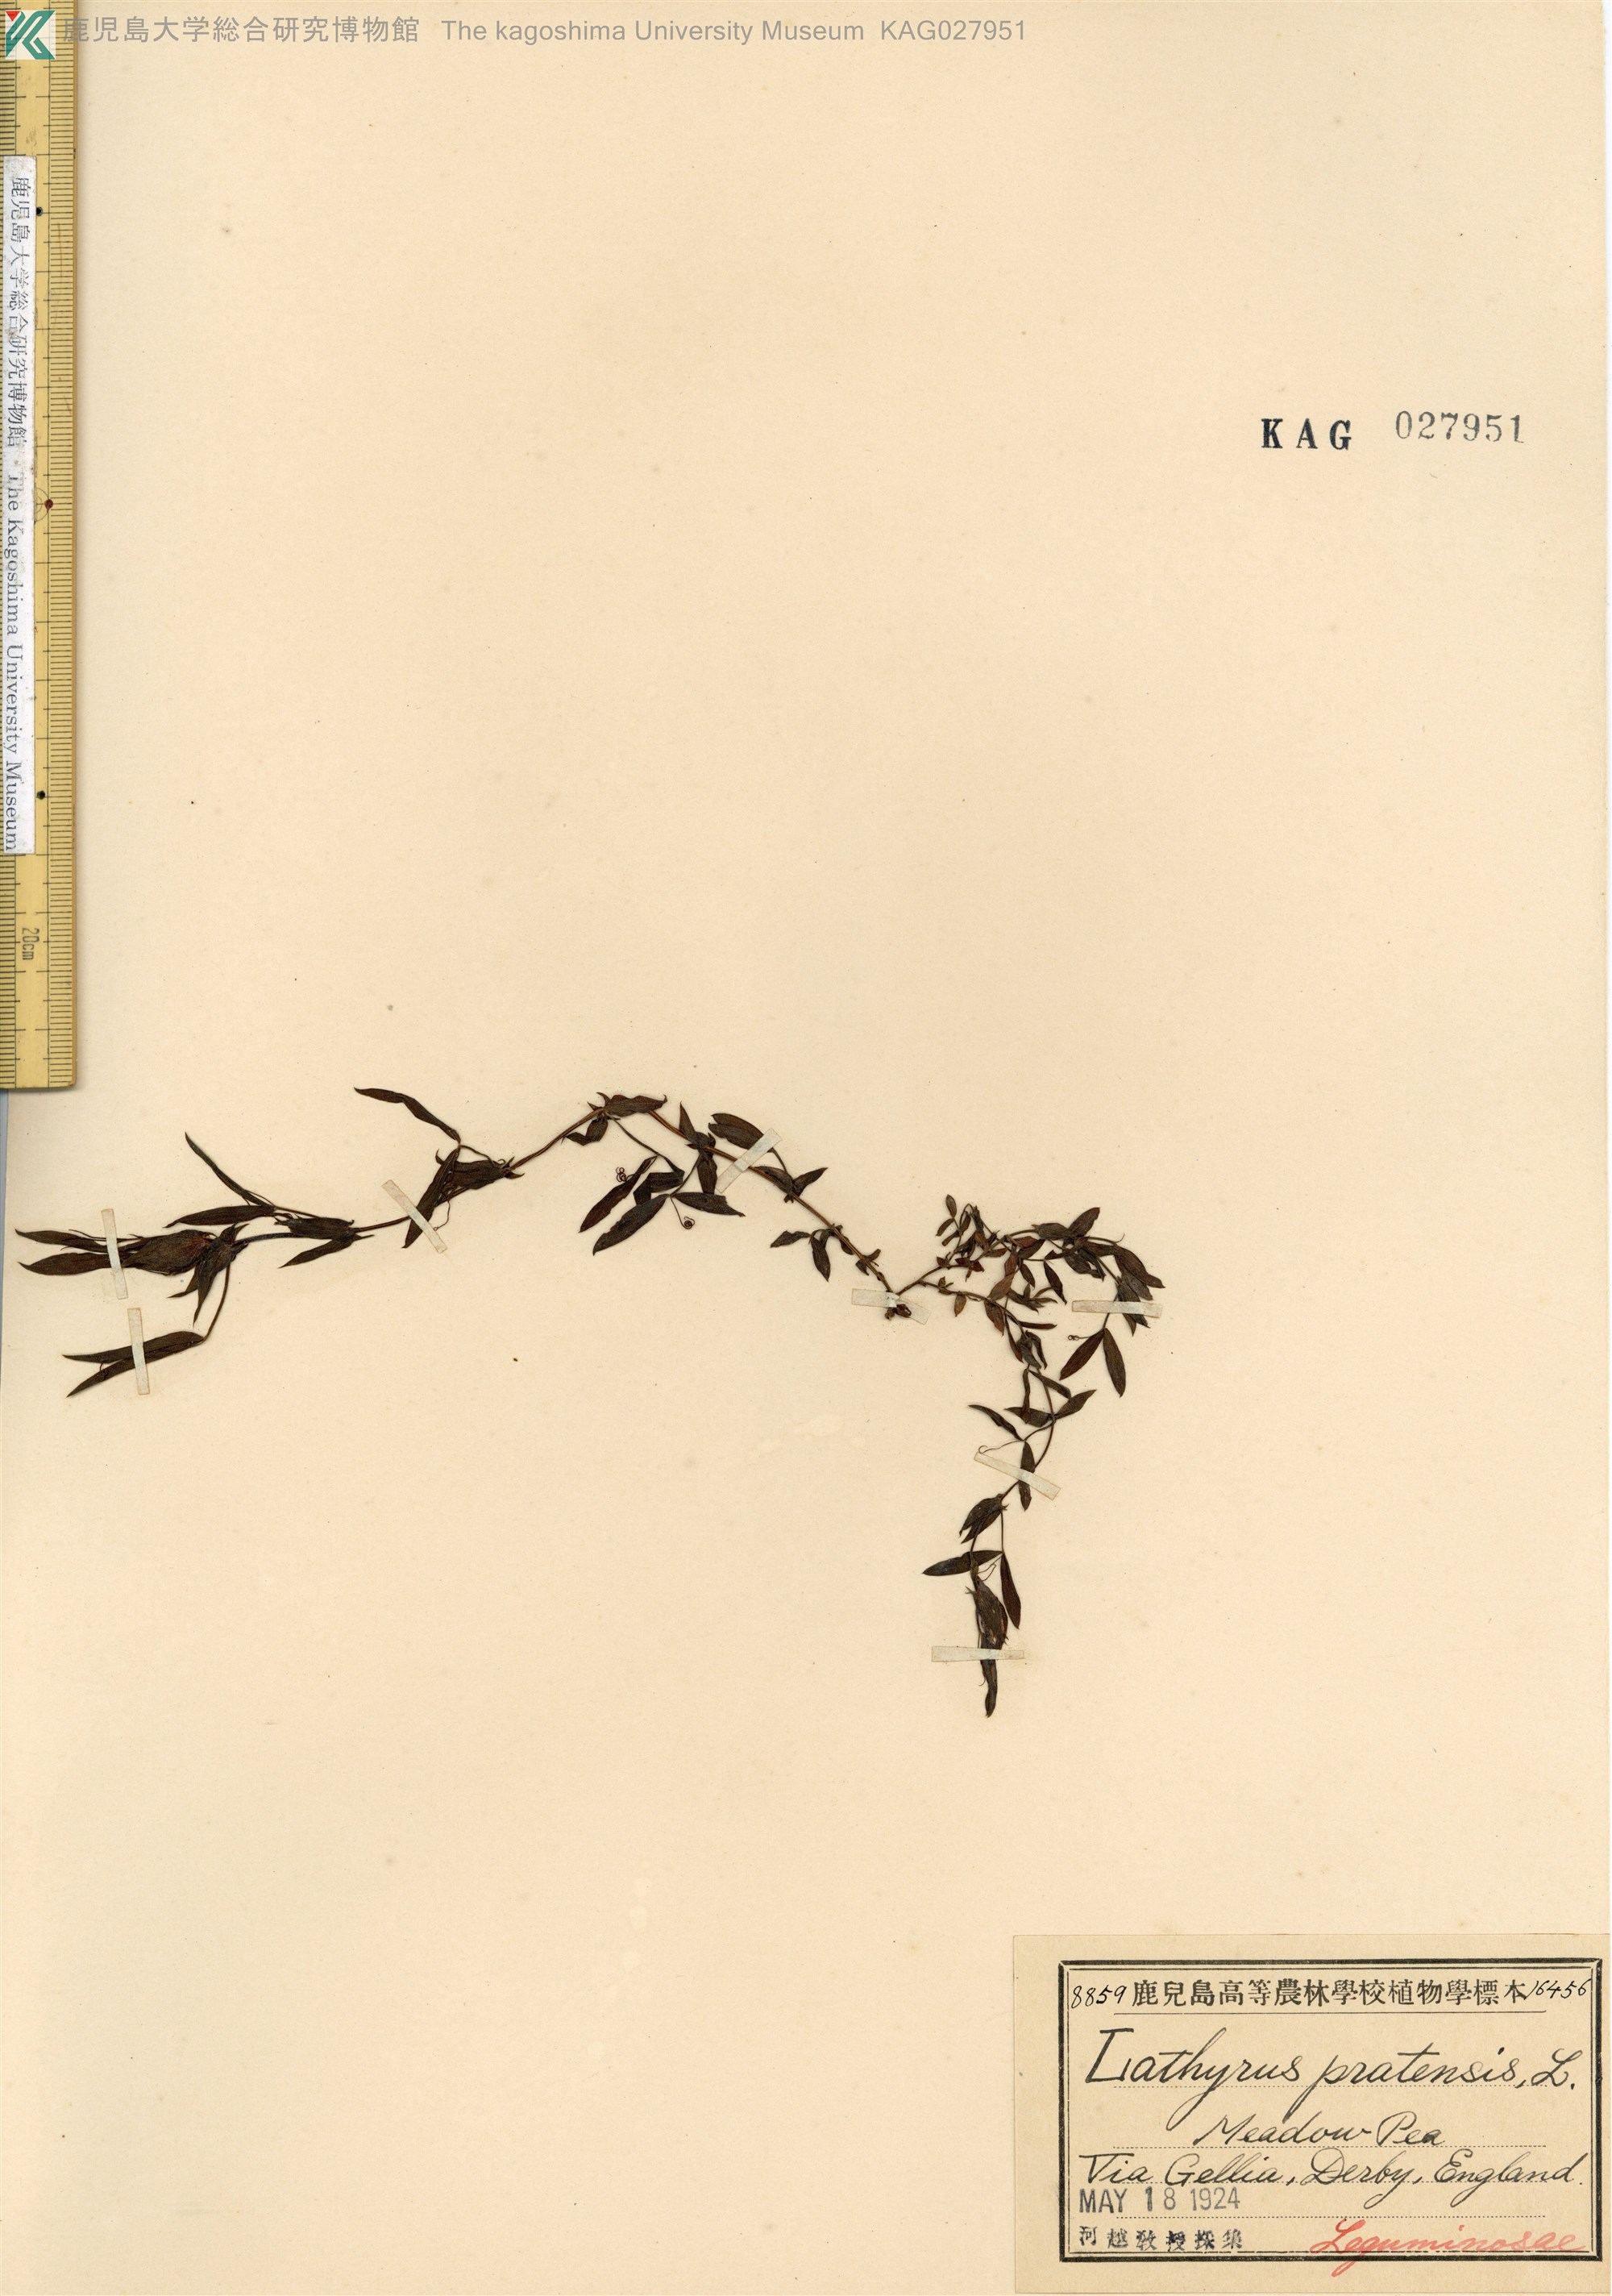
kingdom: Plantae
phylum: Tracheophyta
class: Magnoliopsida
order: Fabales
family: Fabaceae
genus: Lathyrus
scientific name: Lathyrus pratensis
